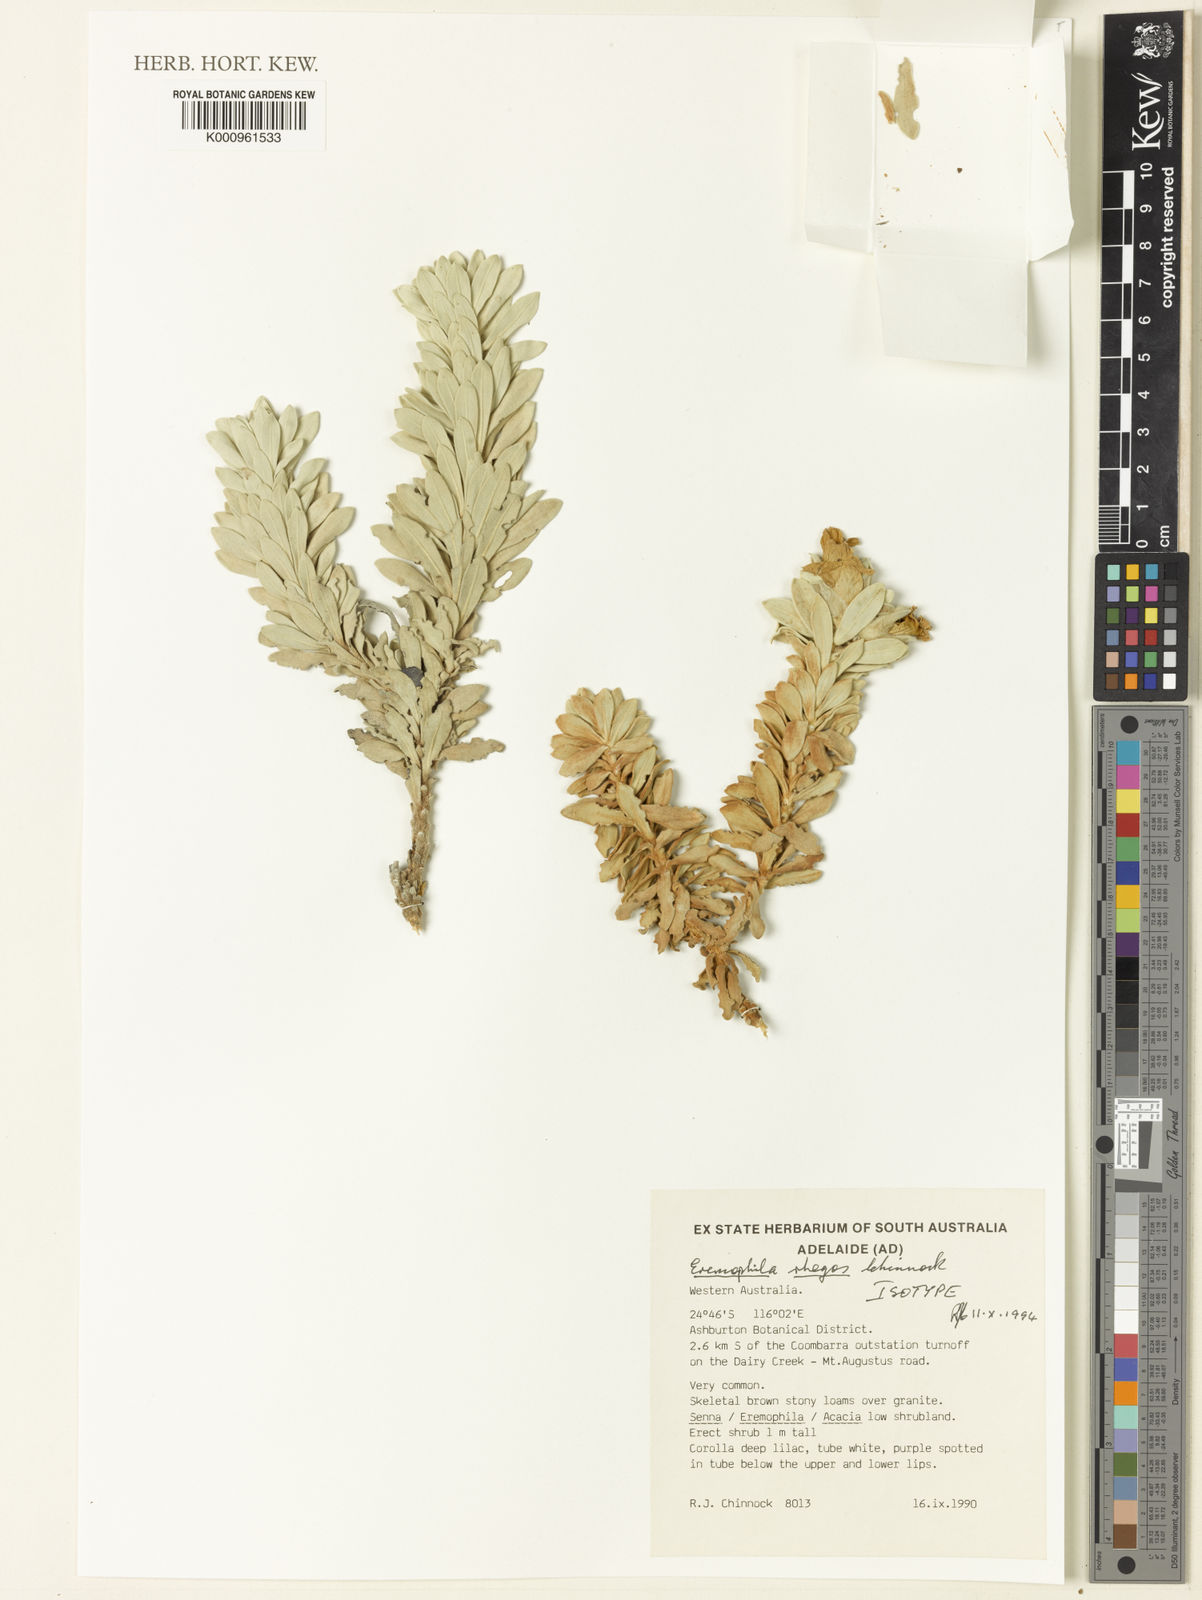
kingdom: Plantae
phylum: Tracheophyta
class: Magnoliopsida
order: Lamiales
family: Scrophulariaceae
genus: Eremophila
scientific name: Eremophila rhegos
